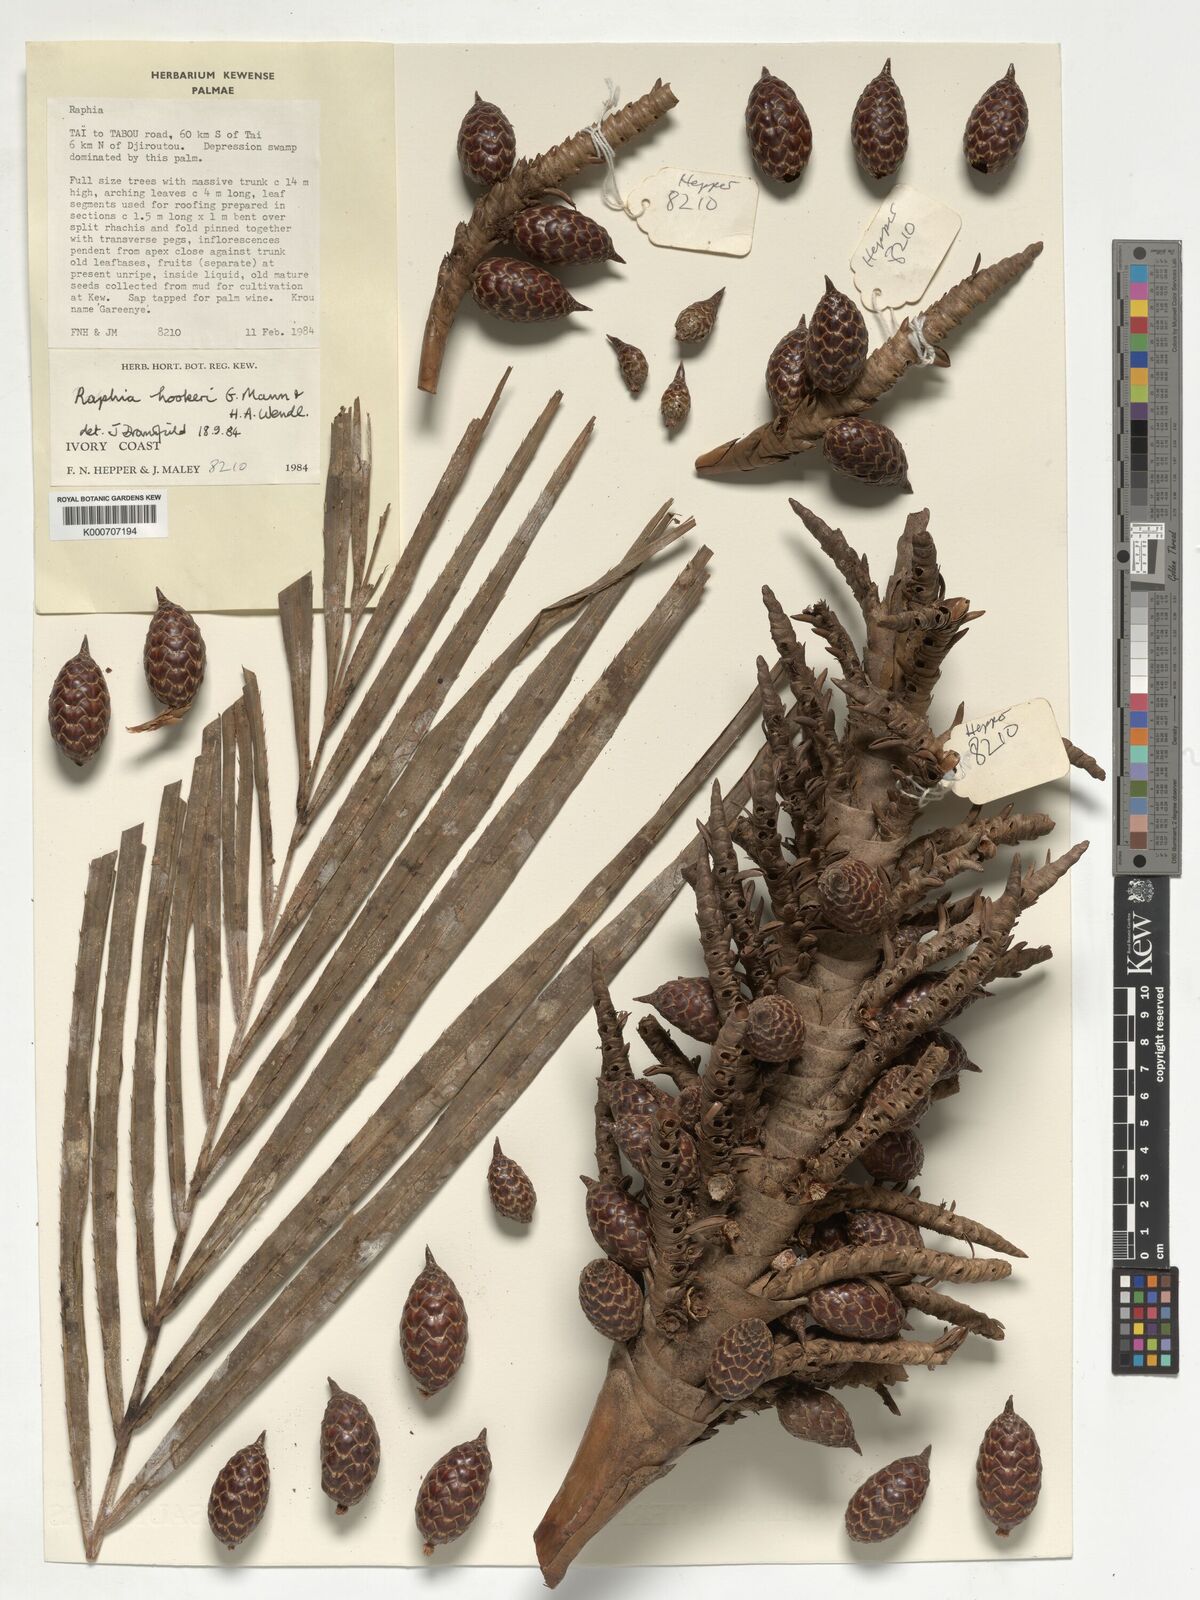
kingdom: Plantae
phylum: Tracheophyta
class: Liliopsida
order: Arecales
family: Arecaceae
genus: Raphia
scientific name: Raphia hookeri
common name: Wine palm
